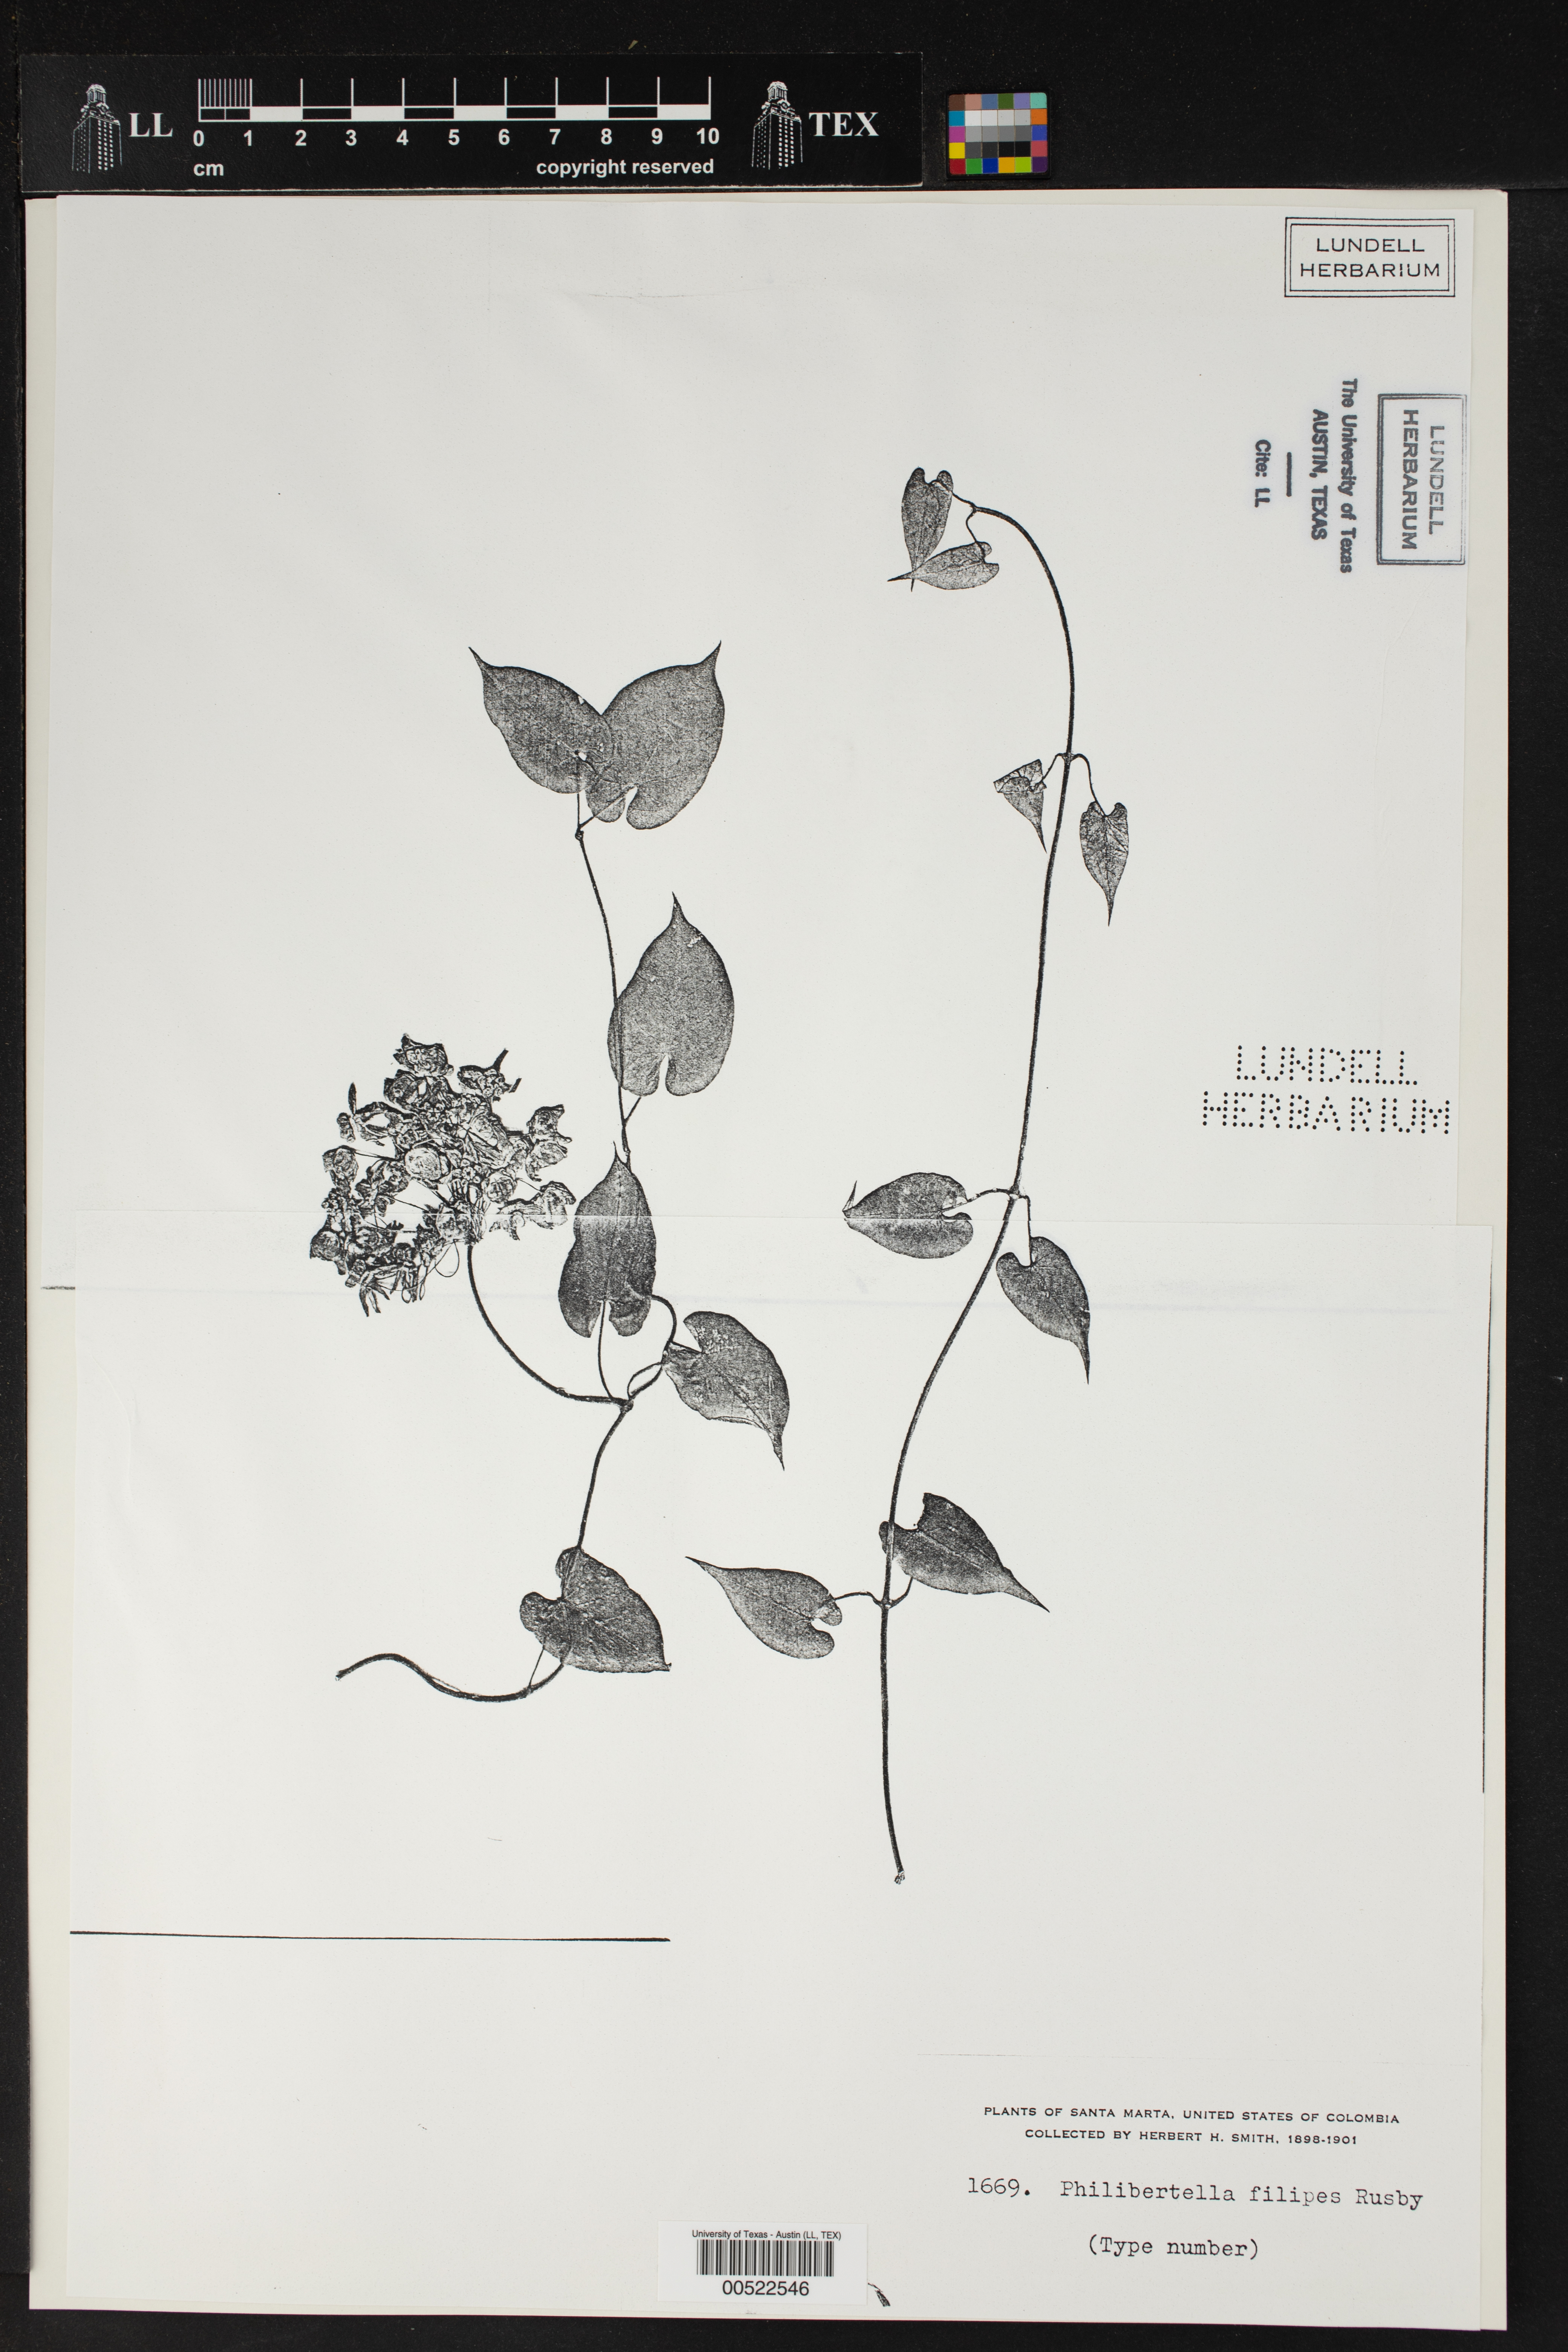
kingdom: Plantae
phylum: Tracheophyta
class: Magnoliopsida
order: Gentianales
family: Apocynaceae
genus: Funastrum
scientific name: Funastrum bilobum
